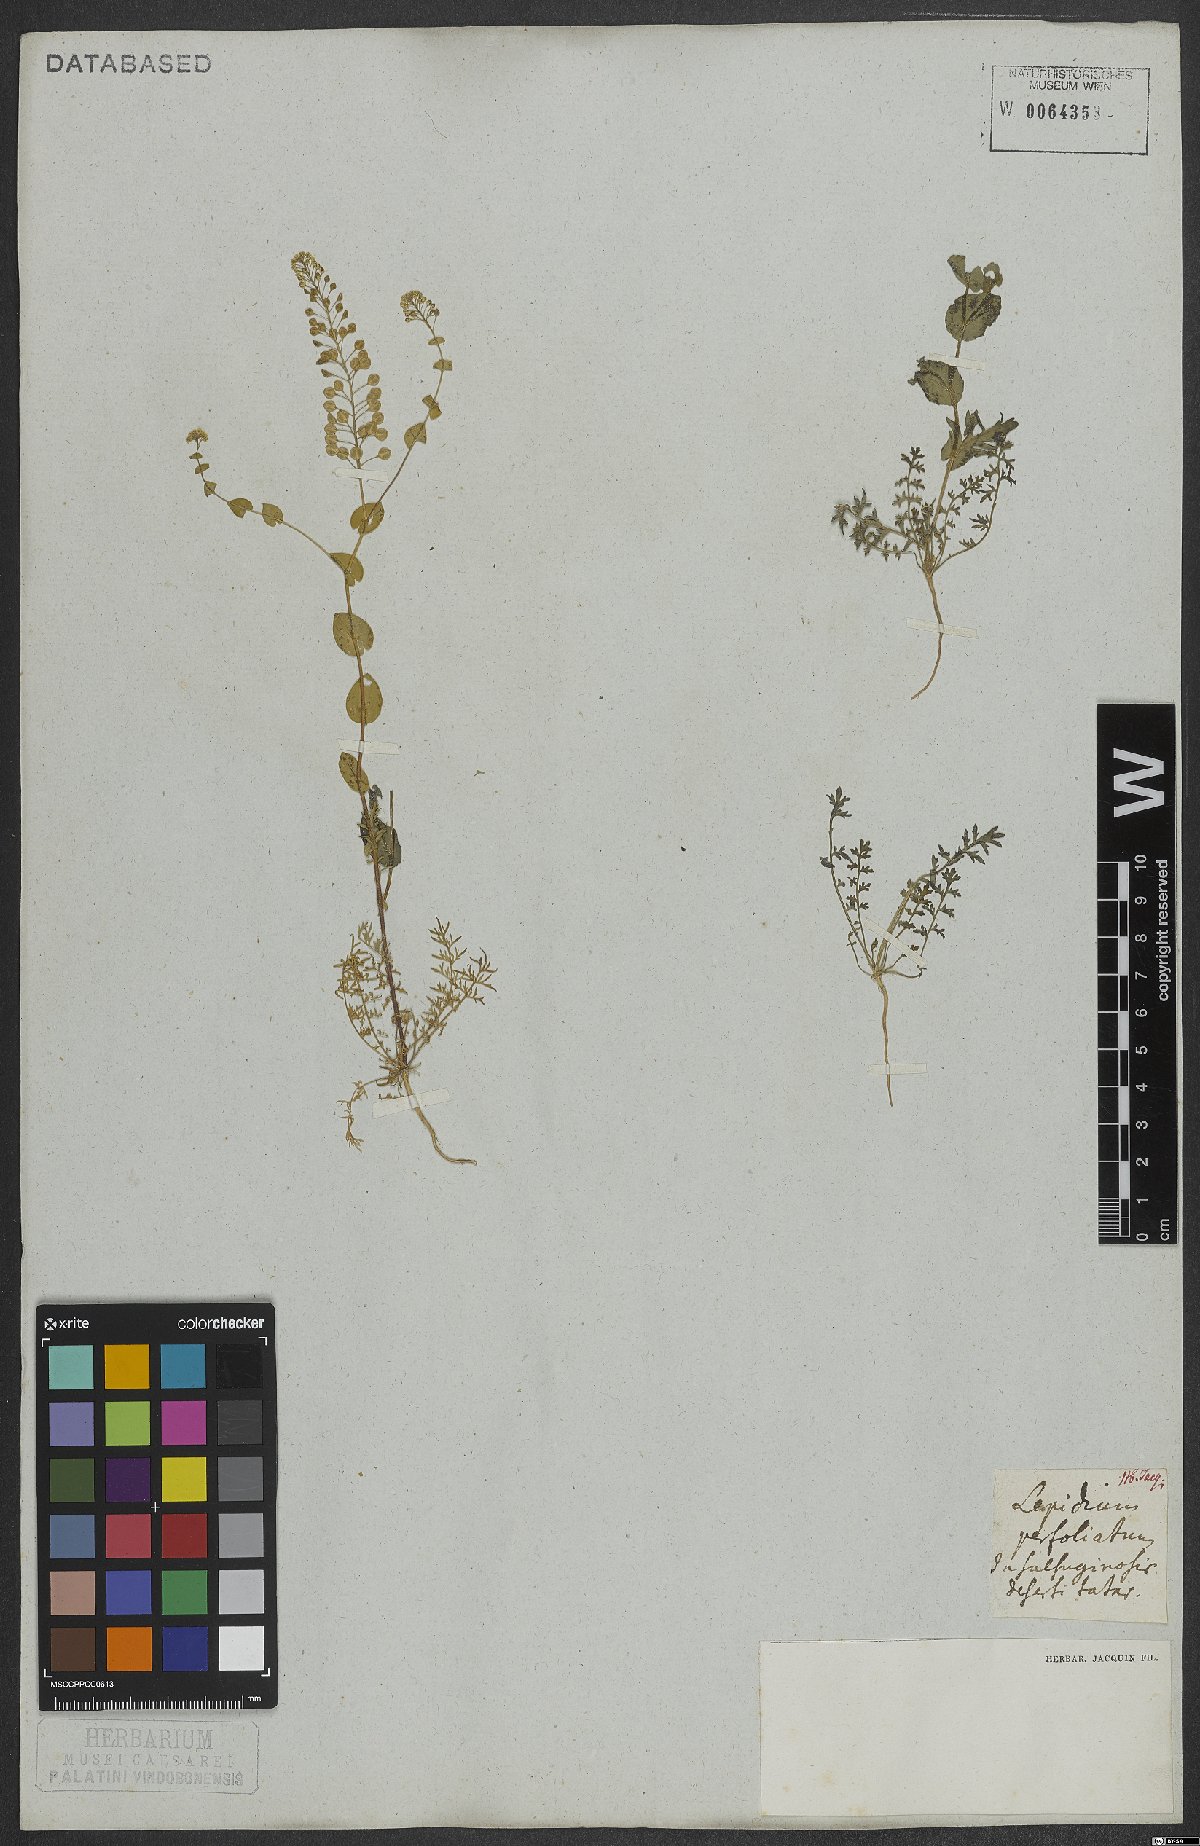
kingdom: Plantae
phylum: Tracheophyta
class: Magnoliopsida
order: Brassicales
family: Brassicaceae
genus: Lepidium
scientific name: Lepidium perfoliatum
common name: Perfoliate pepperwort
